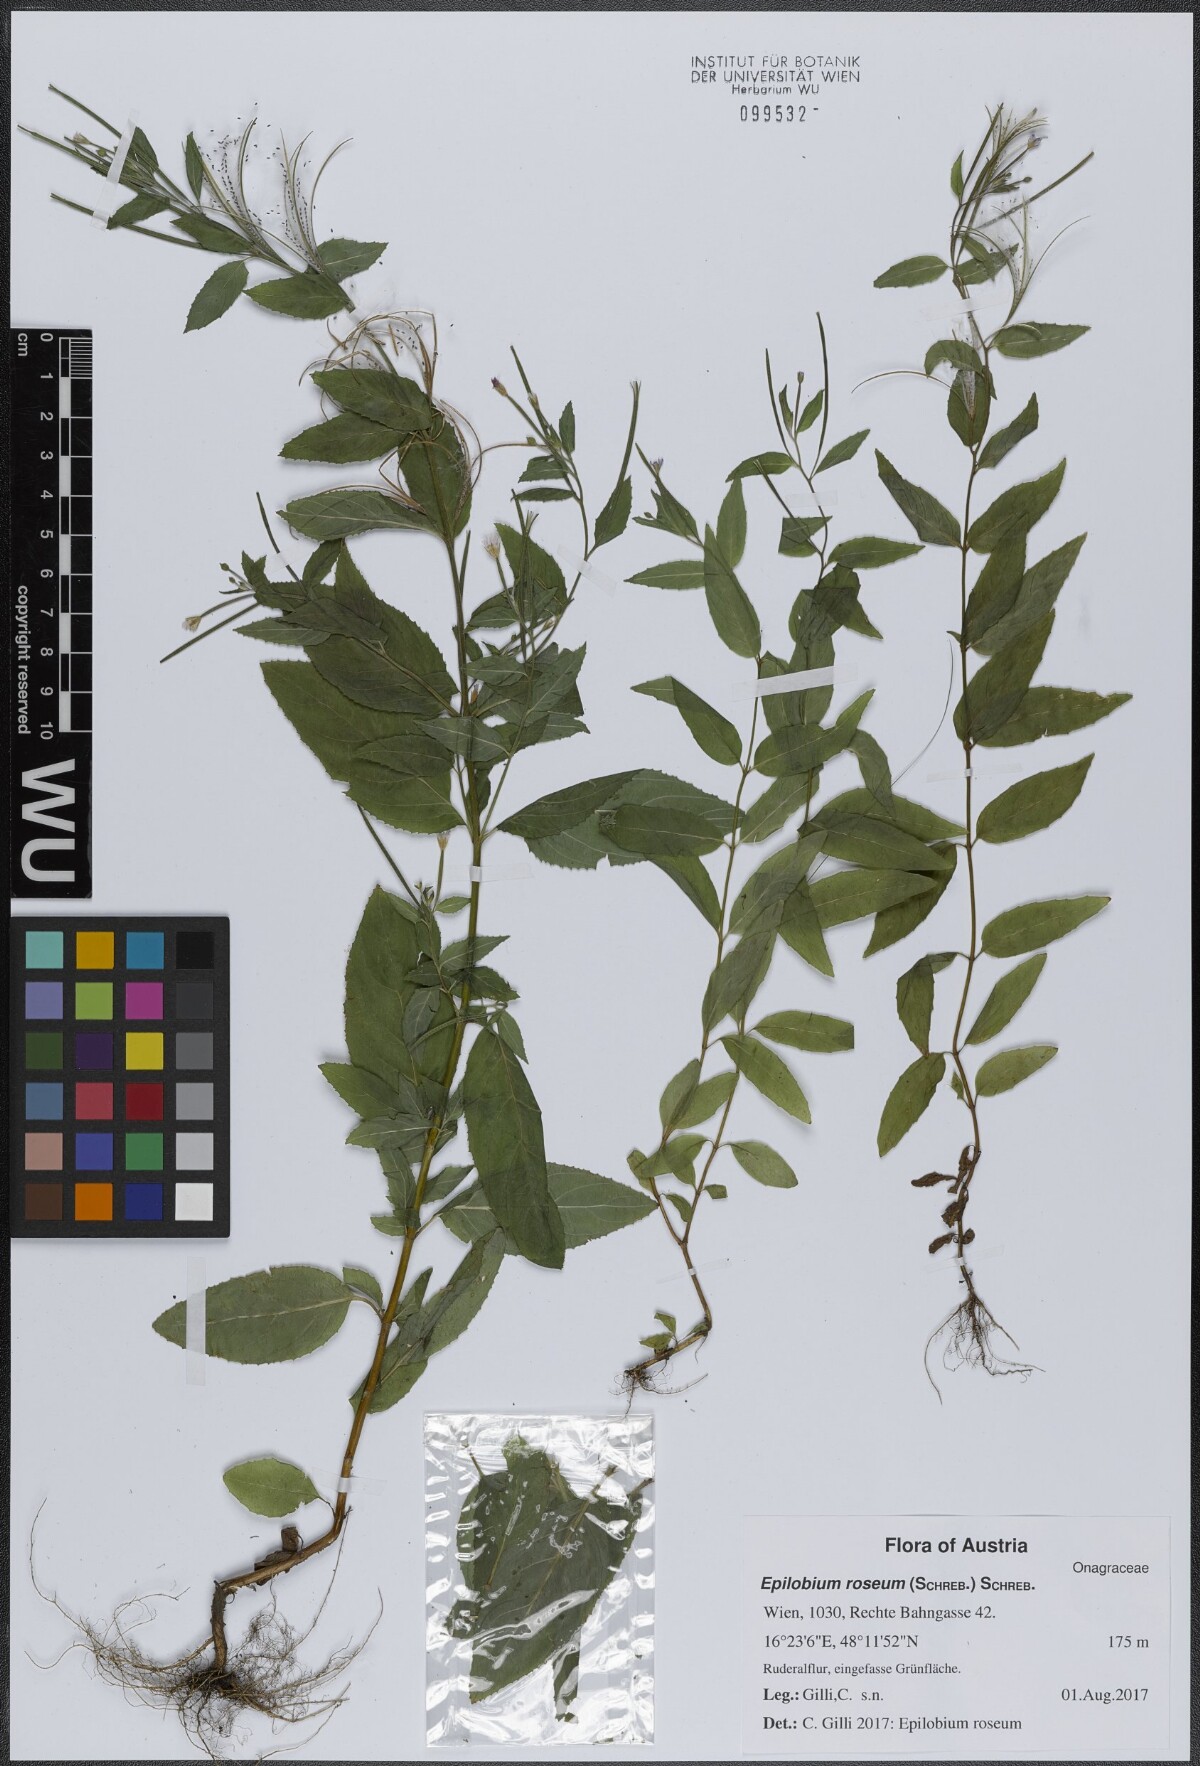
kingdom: Plantae
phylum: Tracheophyta
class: Magnoliopsida
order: Myrtales
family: Onagraceae
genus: Epilobium
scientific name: Epilobium roseum
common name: Pale willowherb
